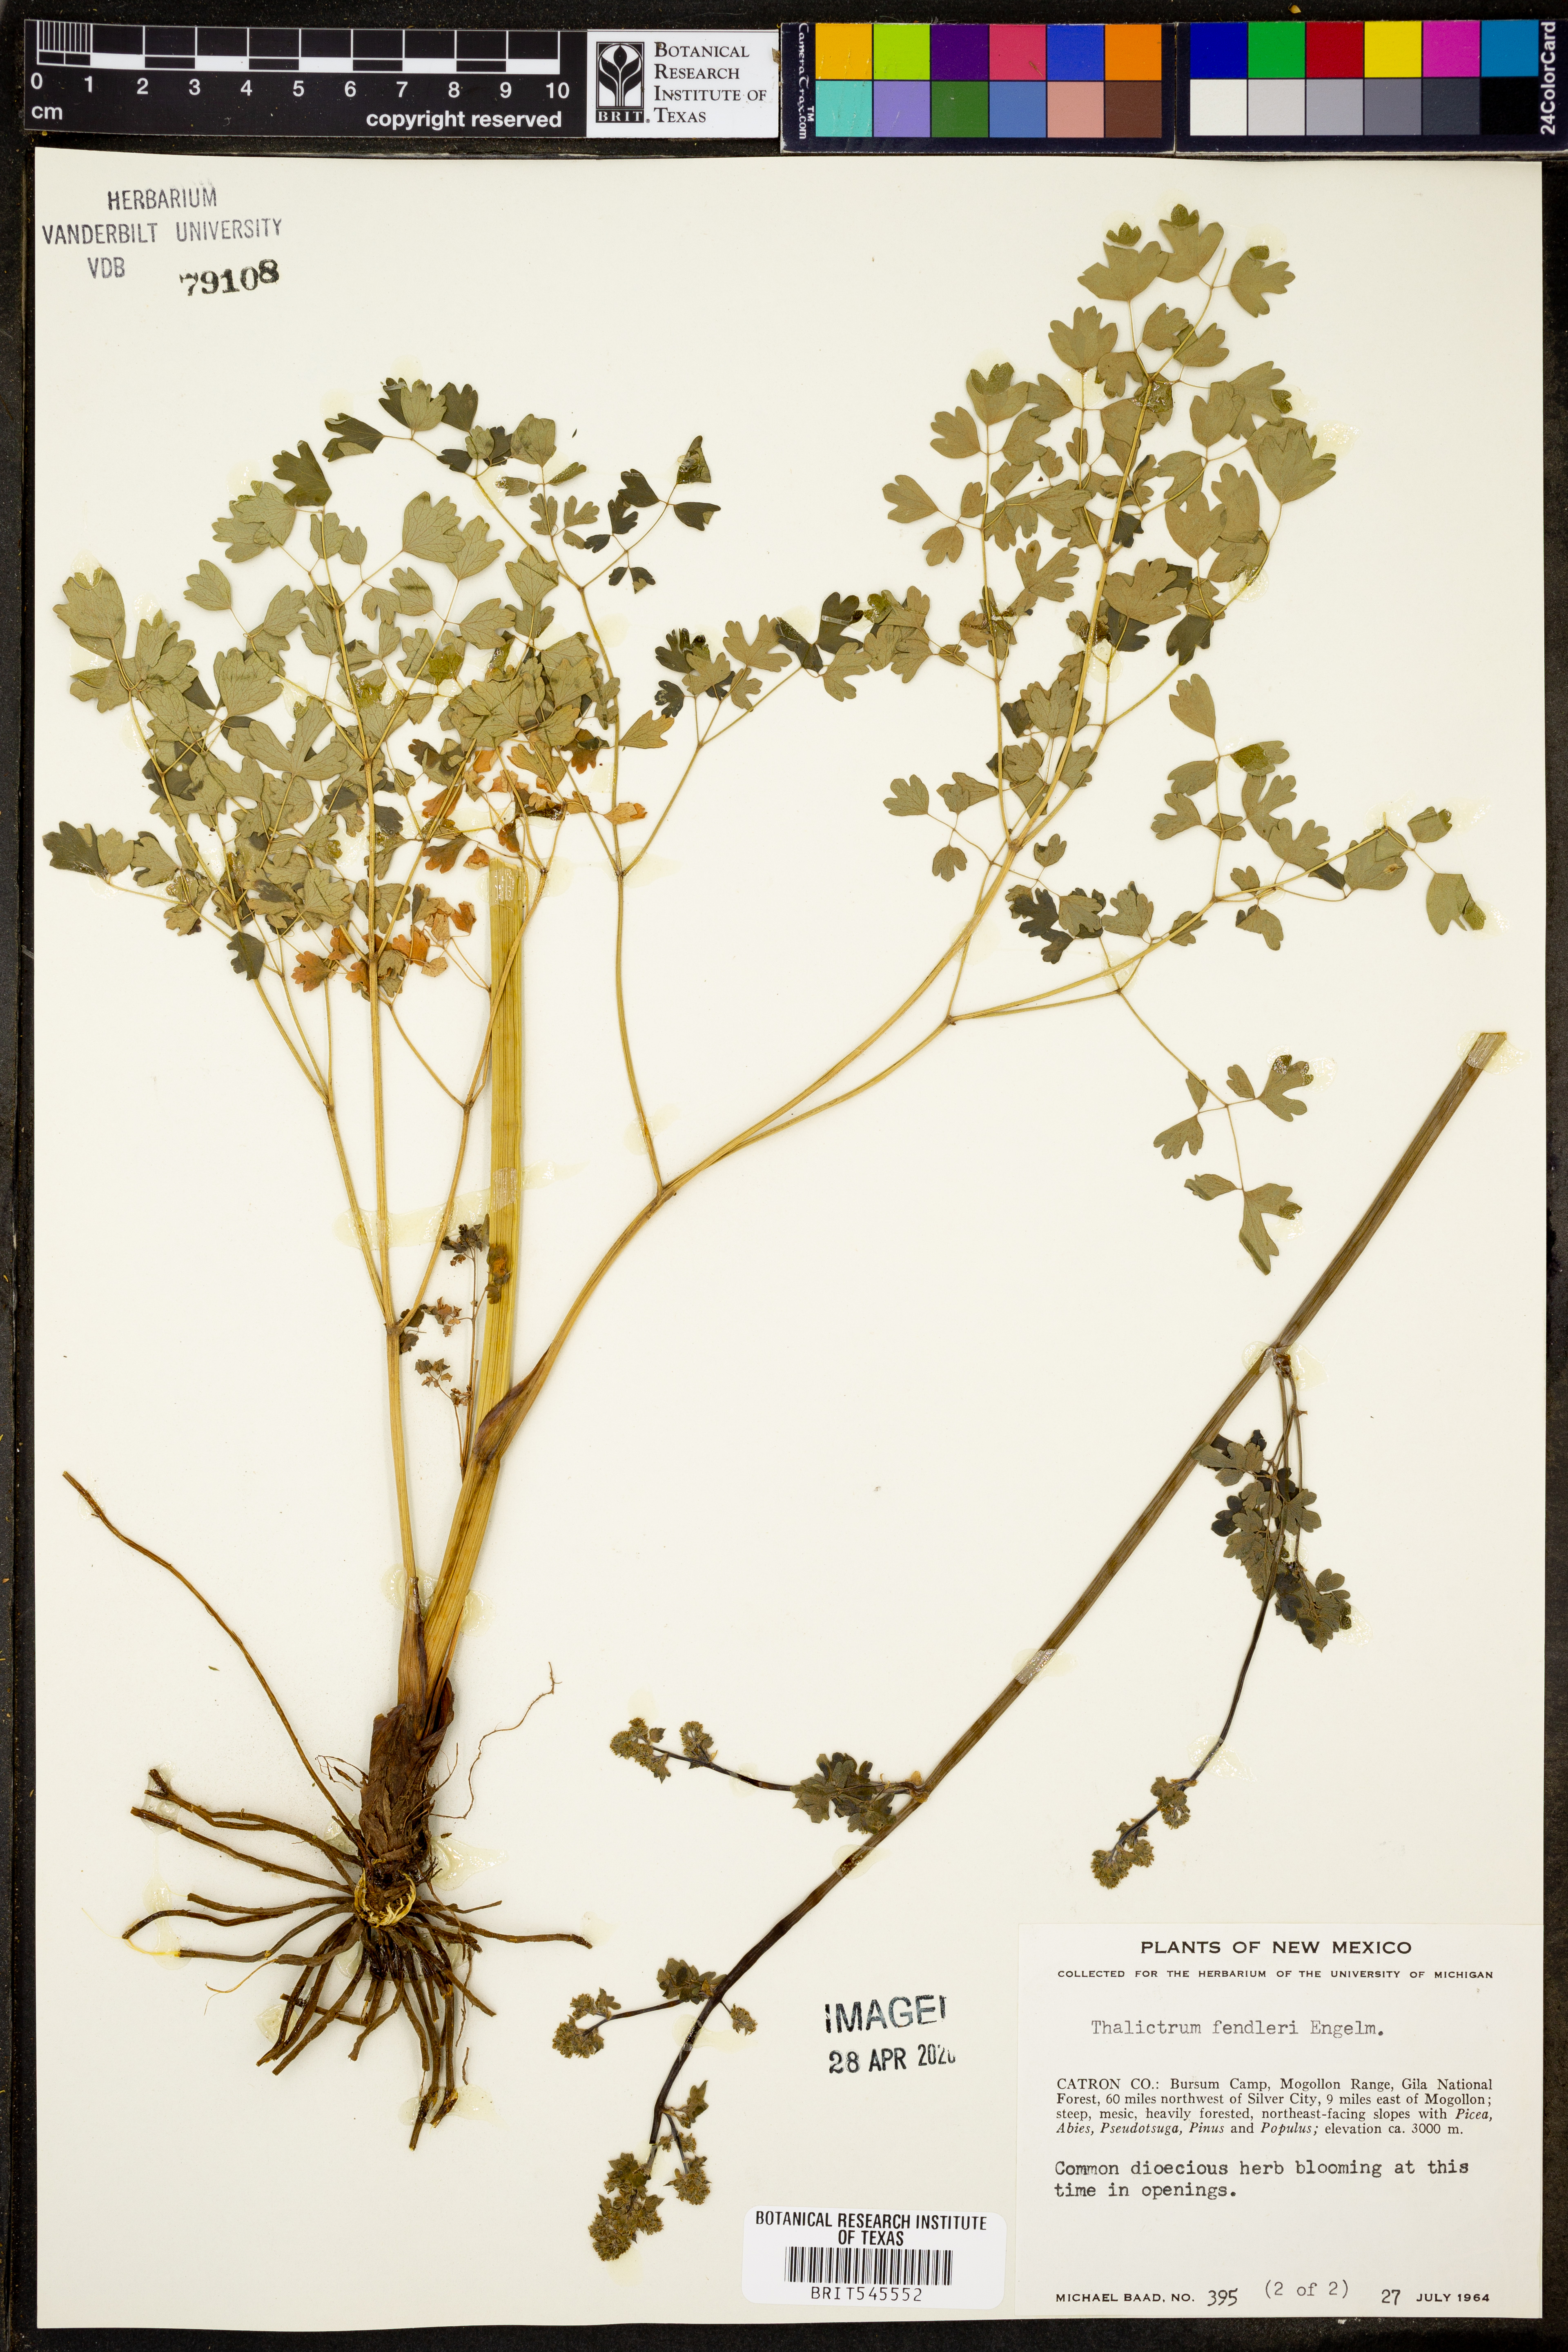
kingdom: Plantae
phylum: Tracheophyta
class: Magnoliopsida
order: Ranunculales
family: Ranunculaceae
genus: Thalictrum
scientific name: Thalictrum fendleri
